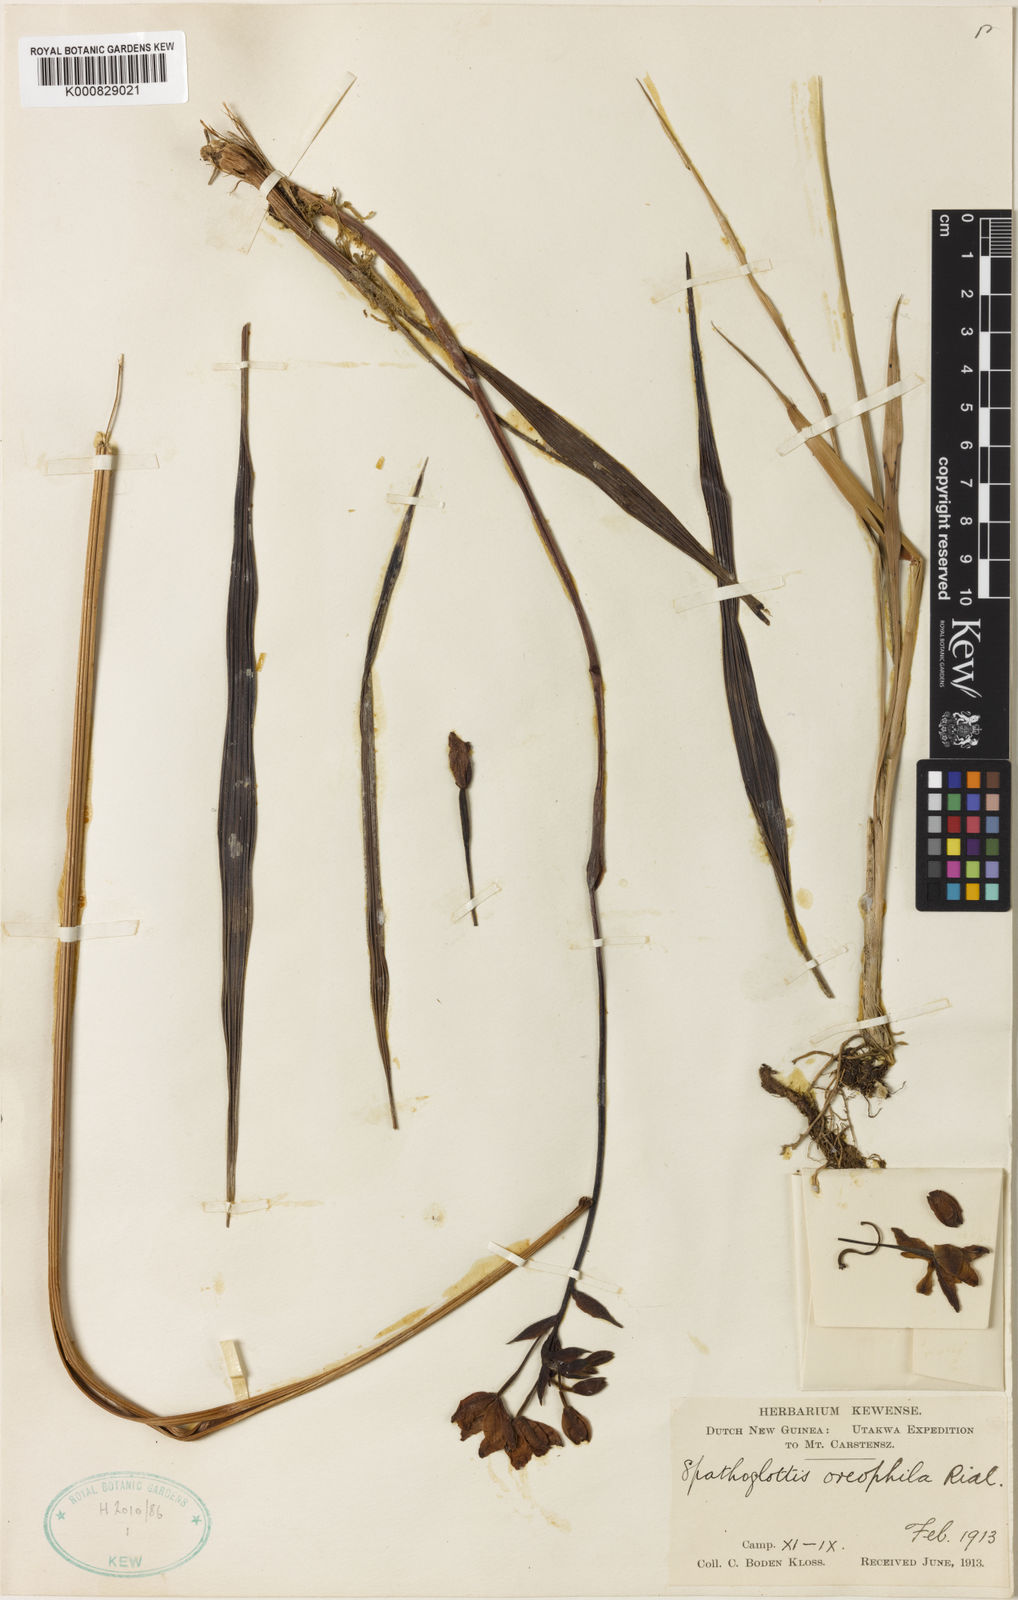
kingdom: Plantae
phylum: Tracheophyta
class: Liliopsida
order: Asparagales
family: Orchidaceae
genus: Spathoglottis
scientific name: Spathoglottis parviflora
